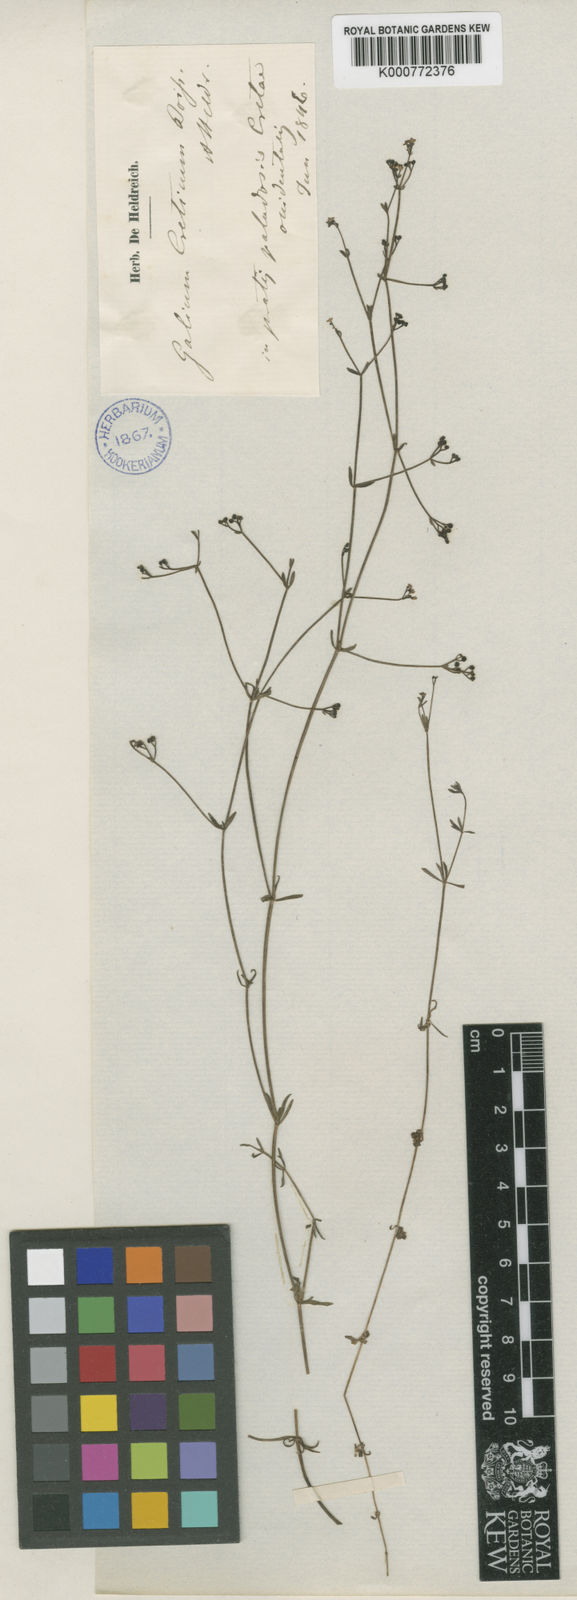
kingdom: Plantae
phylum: Tracheophyta
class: Magnoliopsida
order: Gentianales
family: Rubiaceae
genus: Galium
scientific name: Galium debile
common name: Slender marsh-bedstraw
